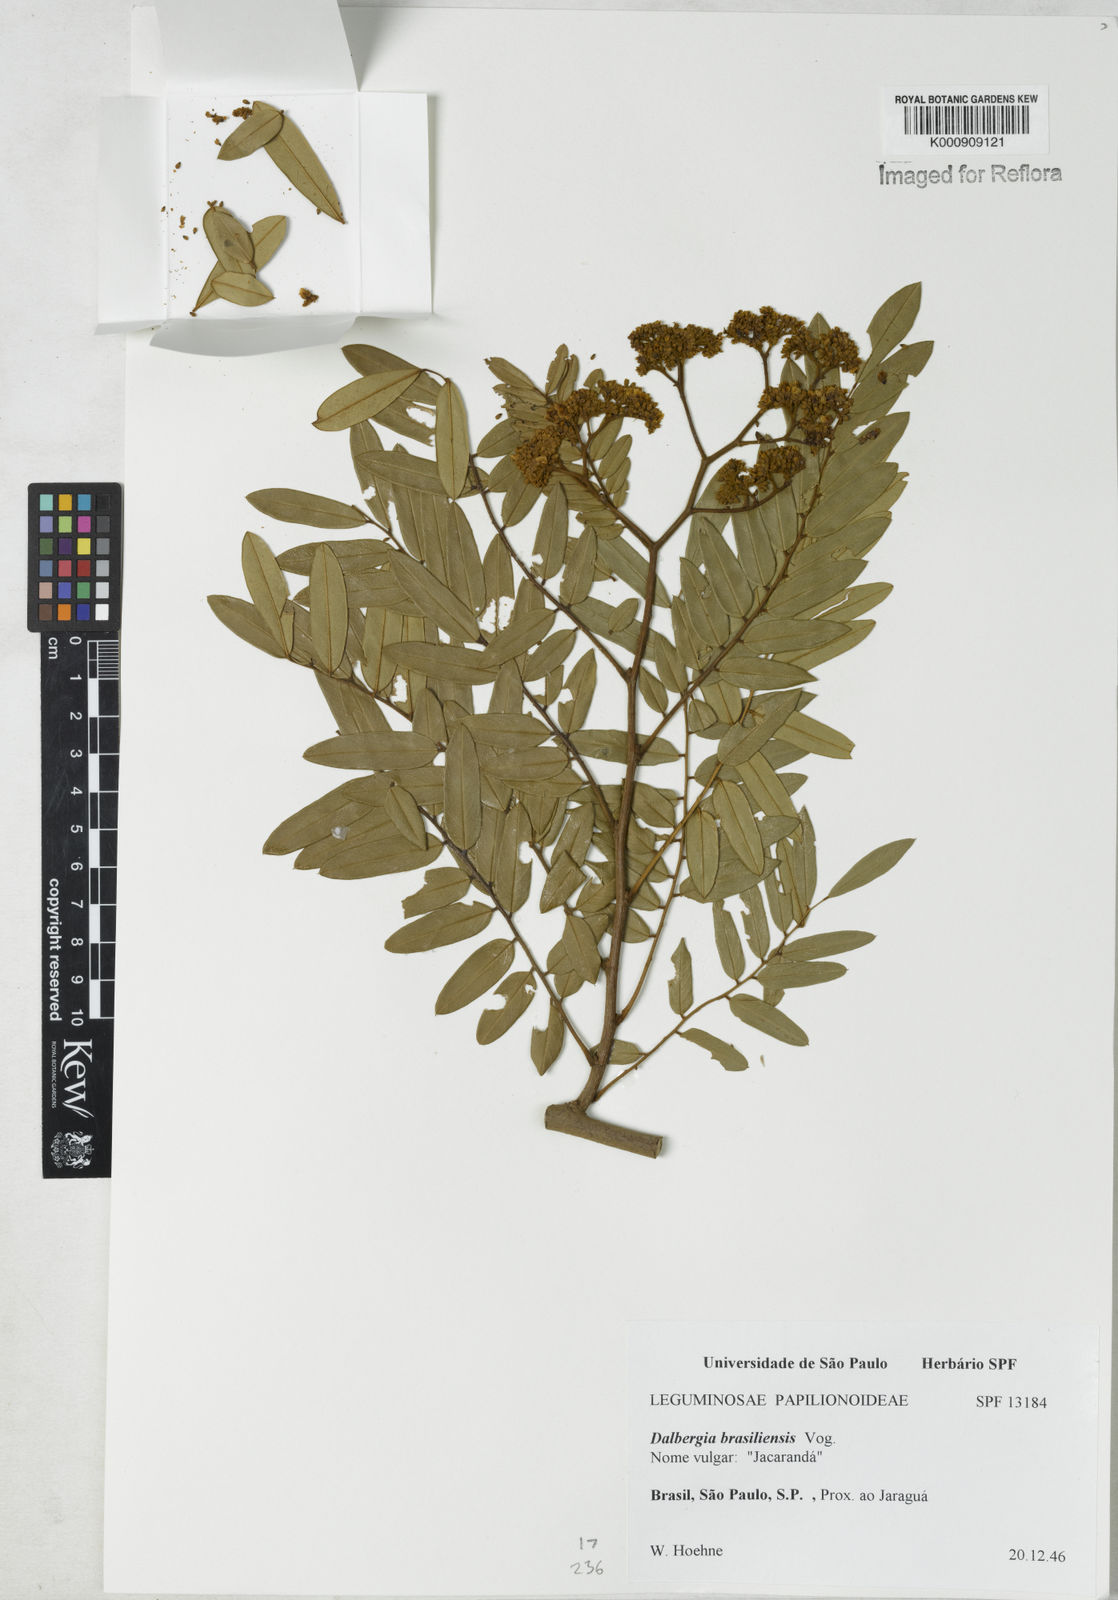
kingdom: Plantae
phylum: Tracheophyta
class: Magnoliopsida
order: Fabales
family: Fabaceae
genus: Dalbergia
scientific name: Dalbergia brasiliensis
